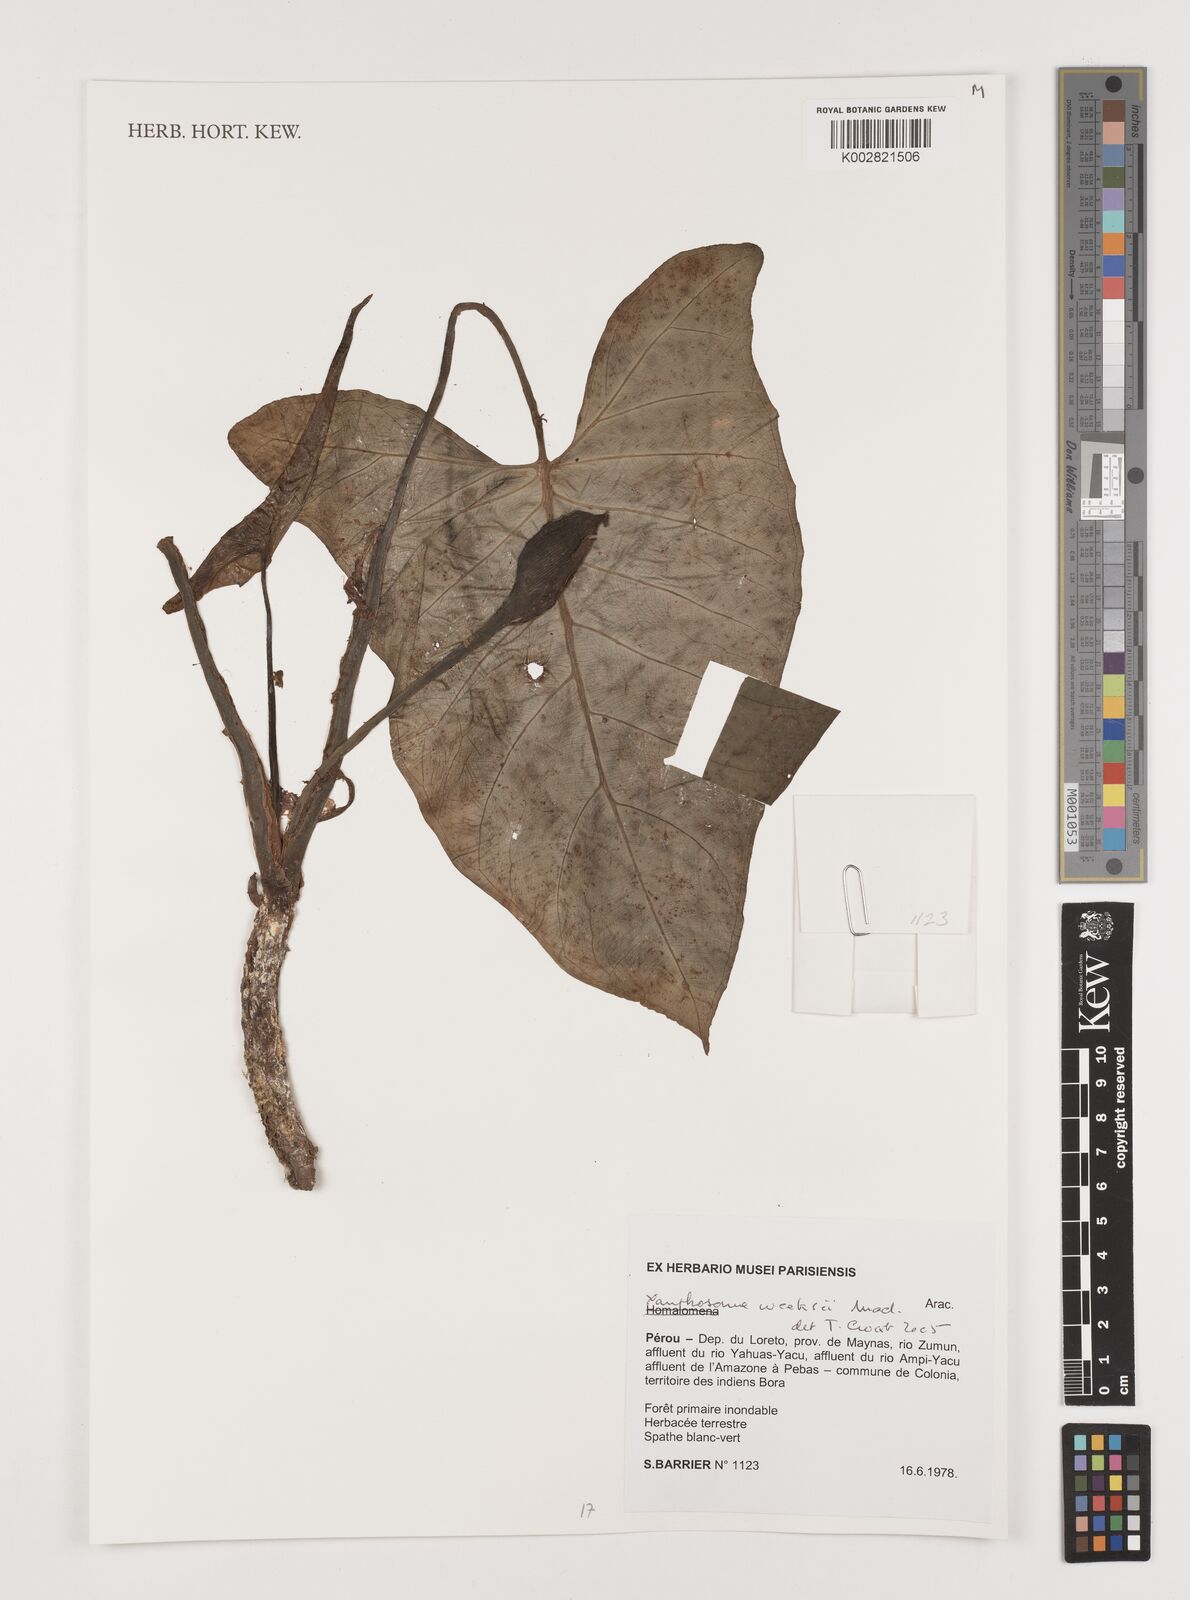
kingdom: Plantae
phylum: Tracheophyta
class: Liliopsida
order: Alismatales
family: Araceae
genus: Xanthosoma
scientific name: Xanthosoma weeksii
